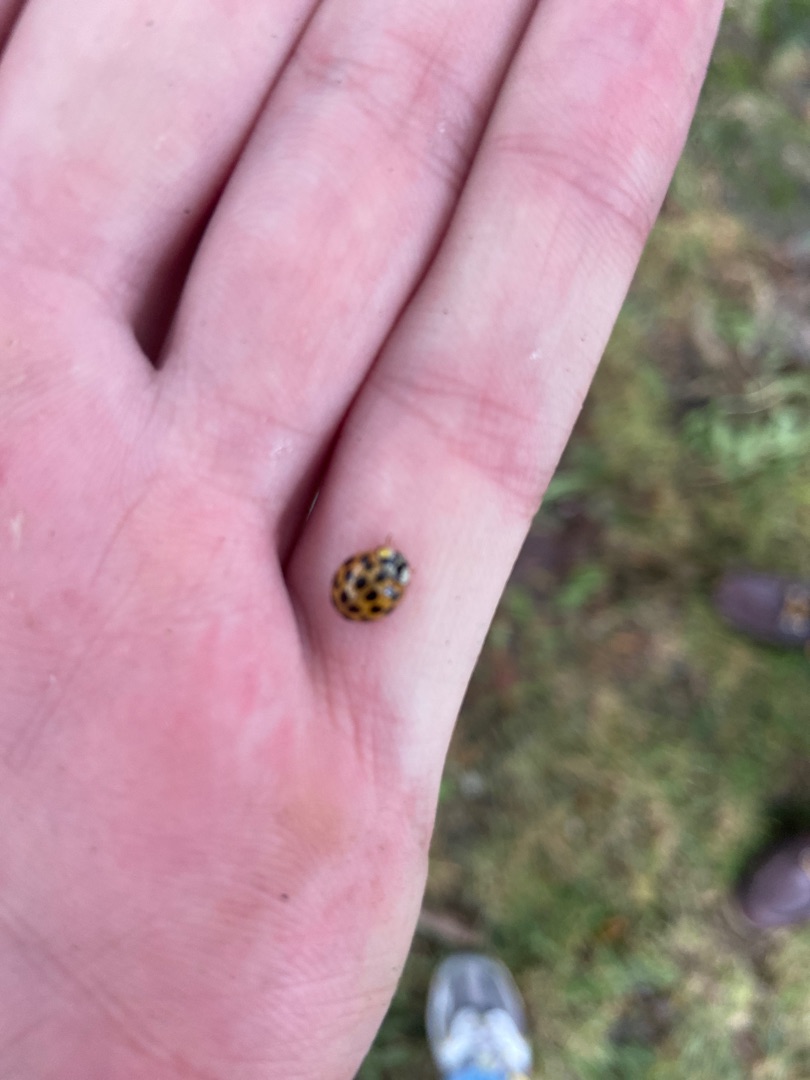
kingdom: Animalia
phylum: Arthropoda
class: Insecta
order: Coleoptera
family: Coccinellidae
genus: Harmonia
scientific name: Harmonia axyridis
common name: Harlekinmariehøne
